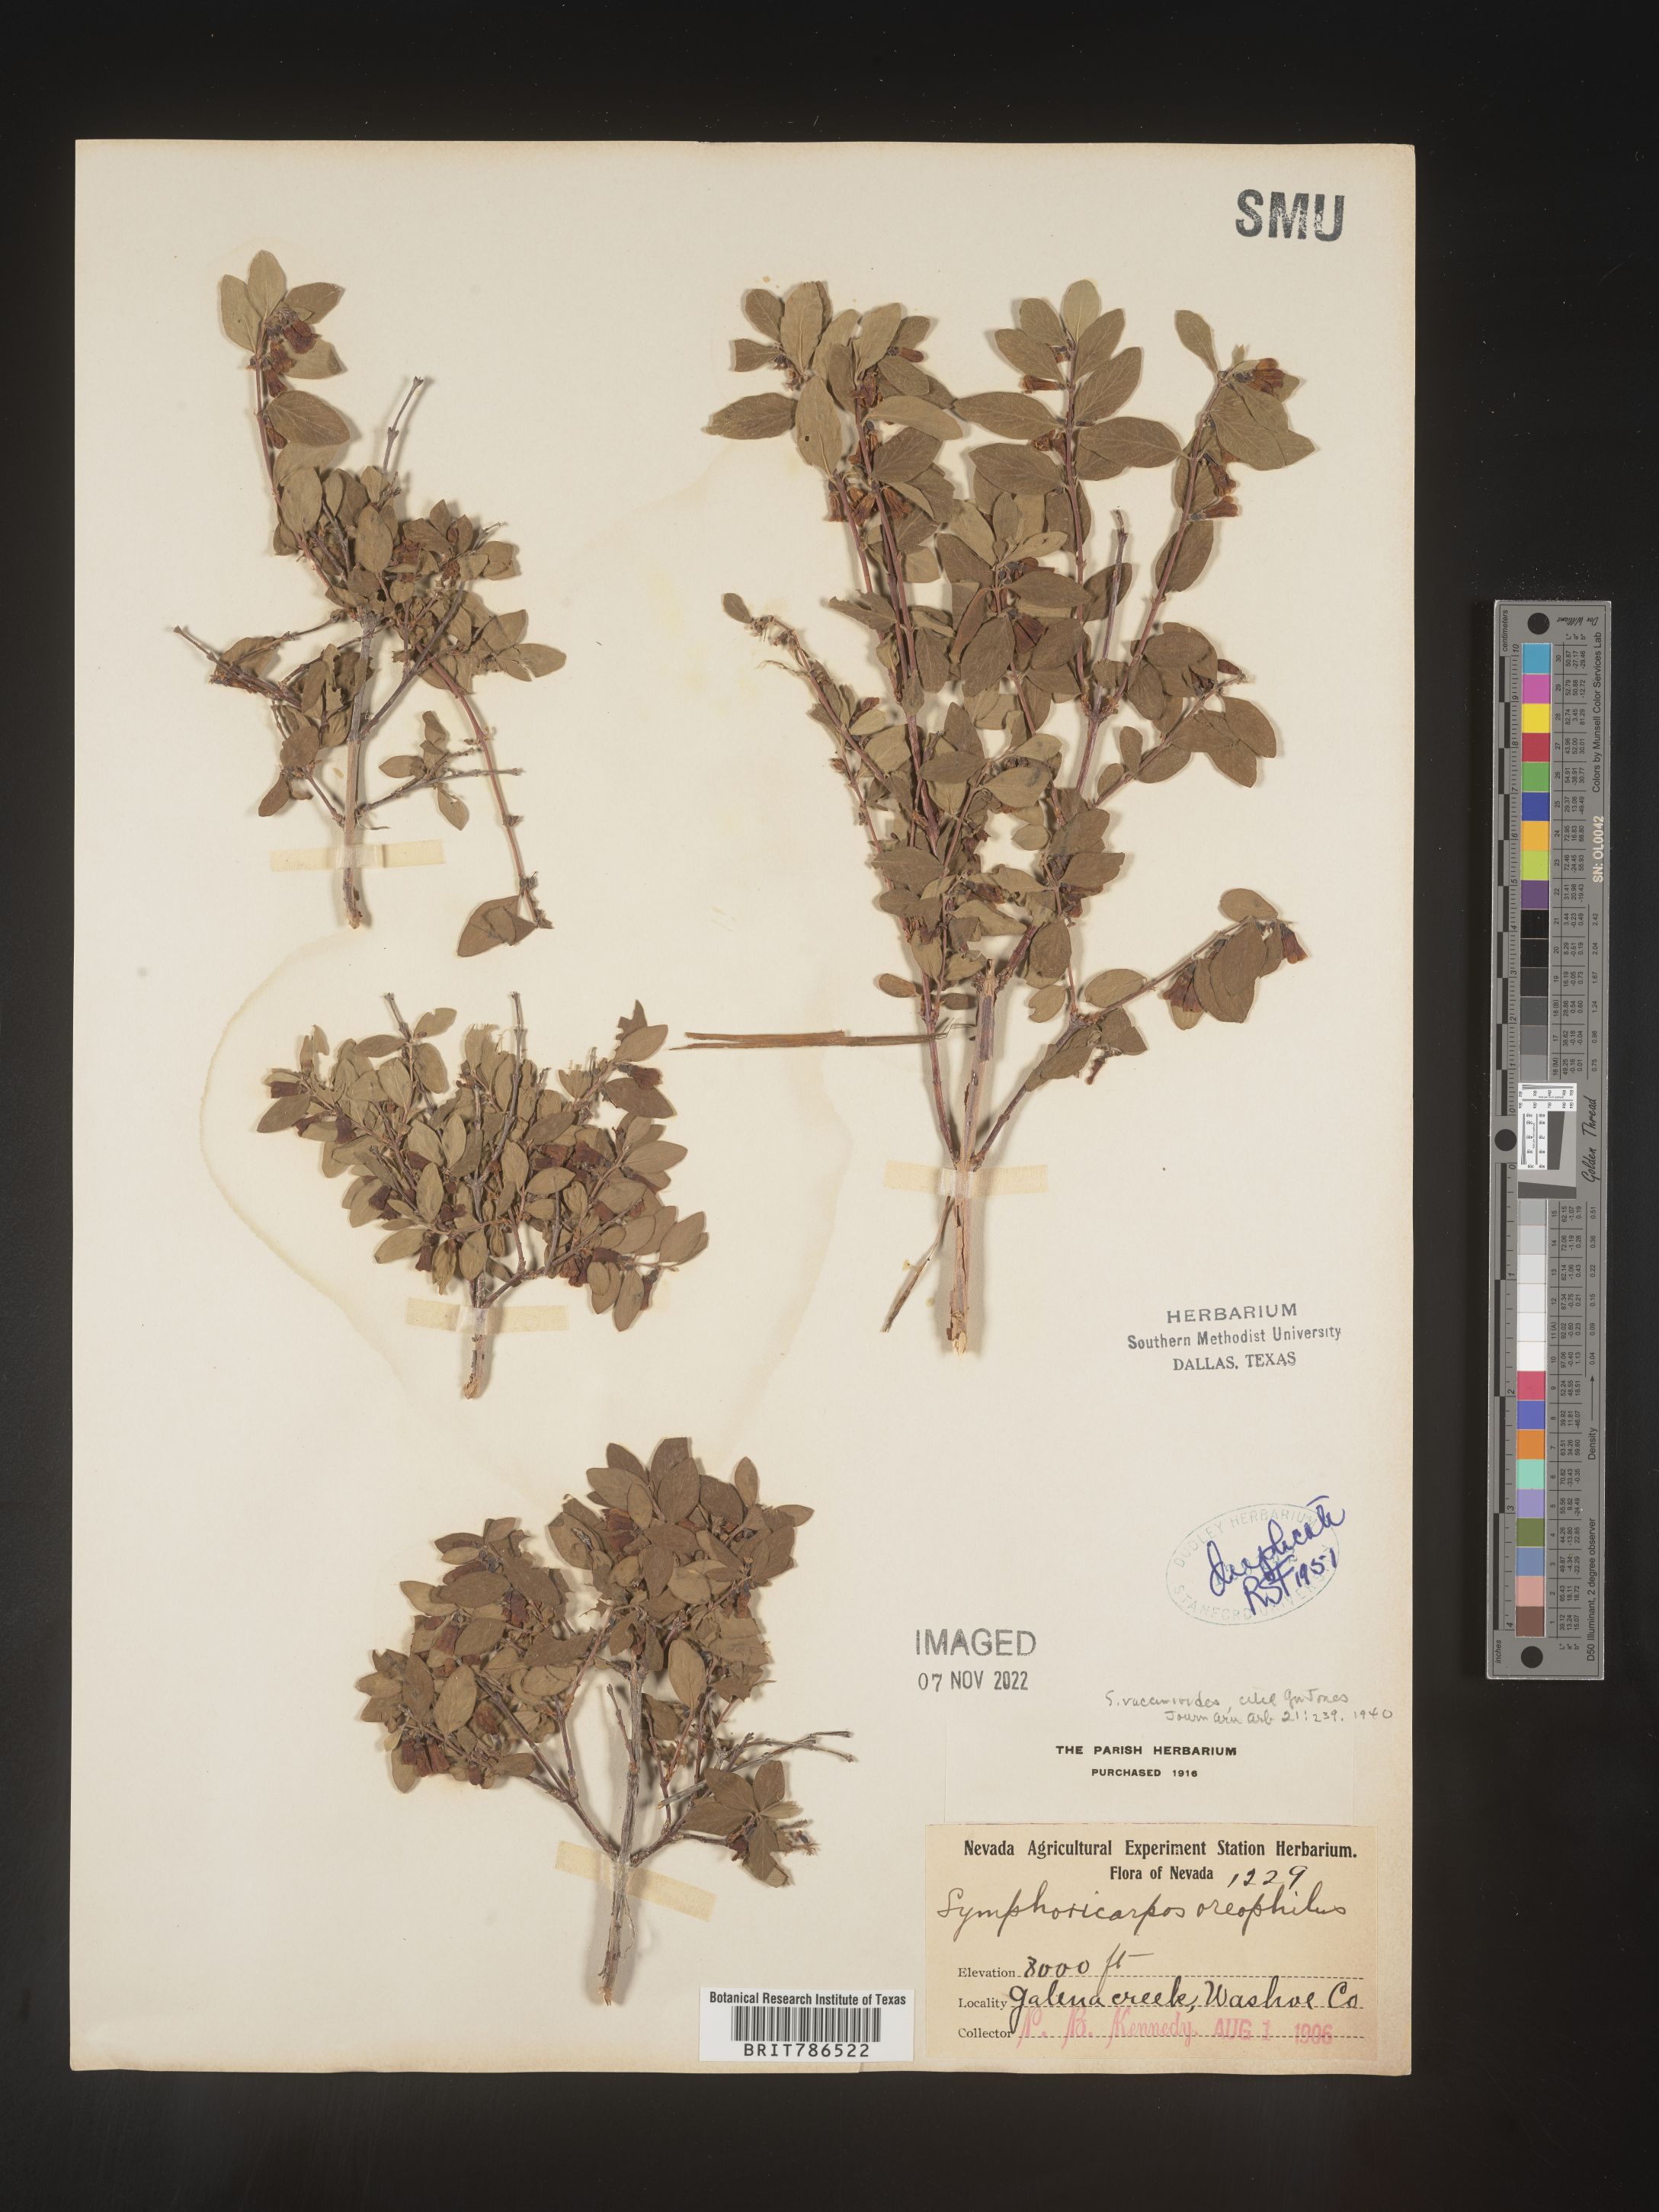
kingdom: Plantae
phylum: Tracheophyta
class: Magnoliopsida
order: Dipsacales
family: Caprifoliaceae
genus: Symphoricarpos
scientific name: Symphoricarpos
